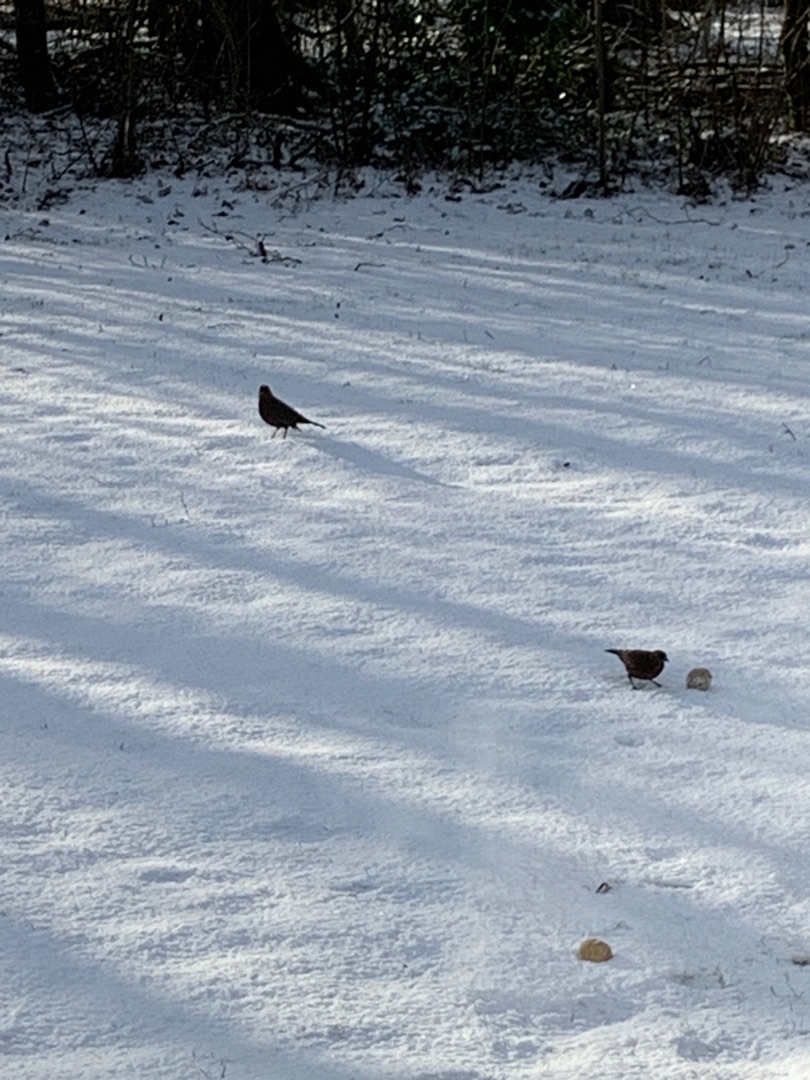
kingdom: Animalia
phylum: Chordata
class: Aves
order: Passeriformes
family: Turdidae
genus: Turdus
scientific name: Turdus merula
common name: Solsort
